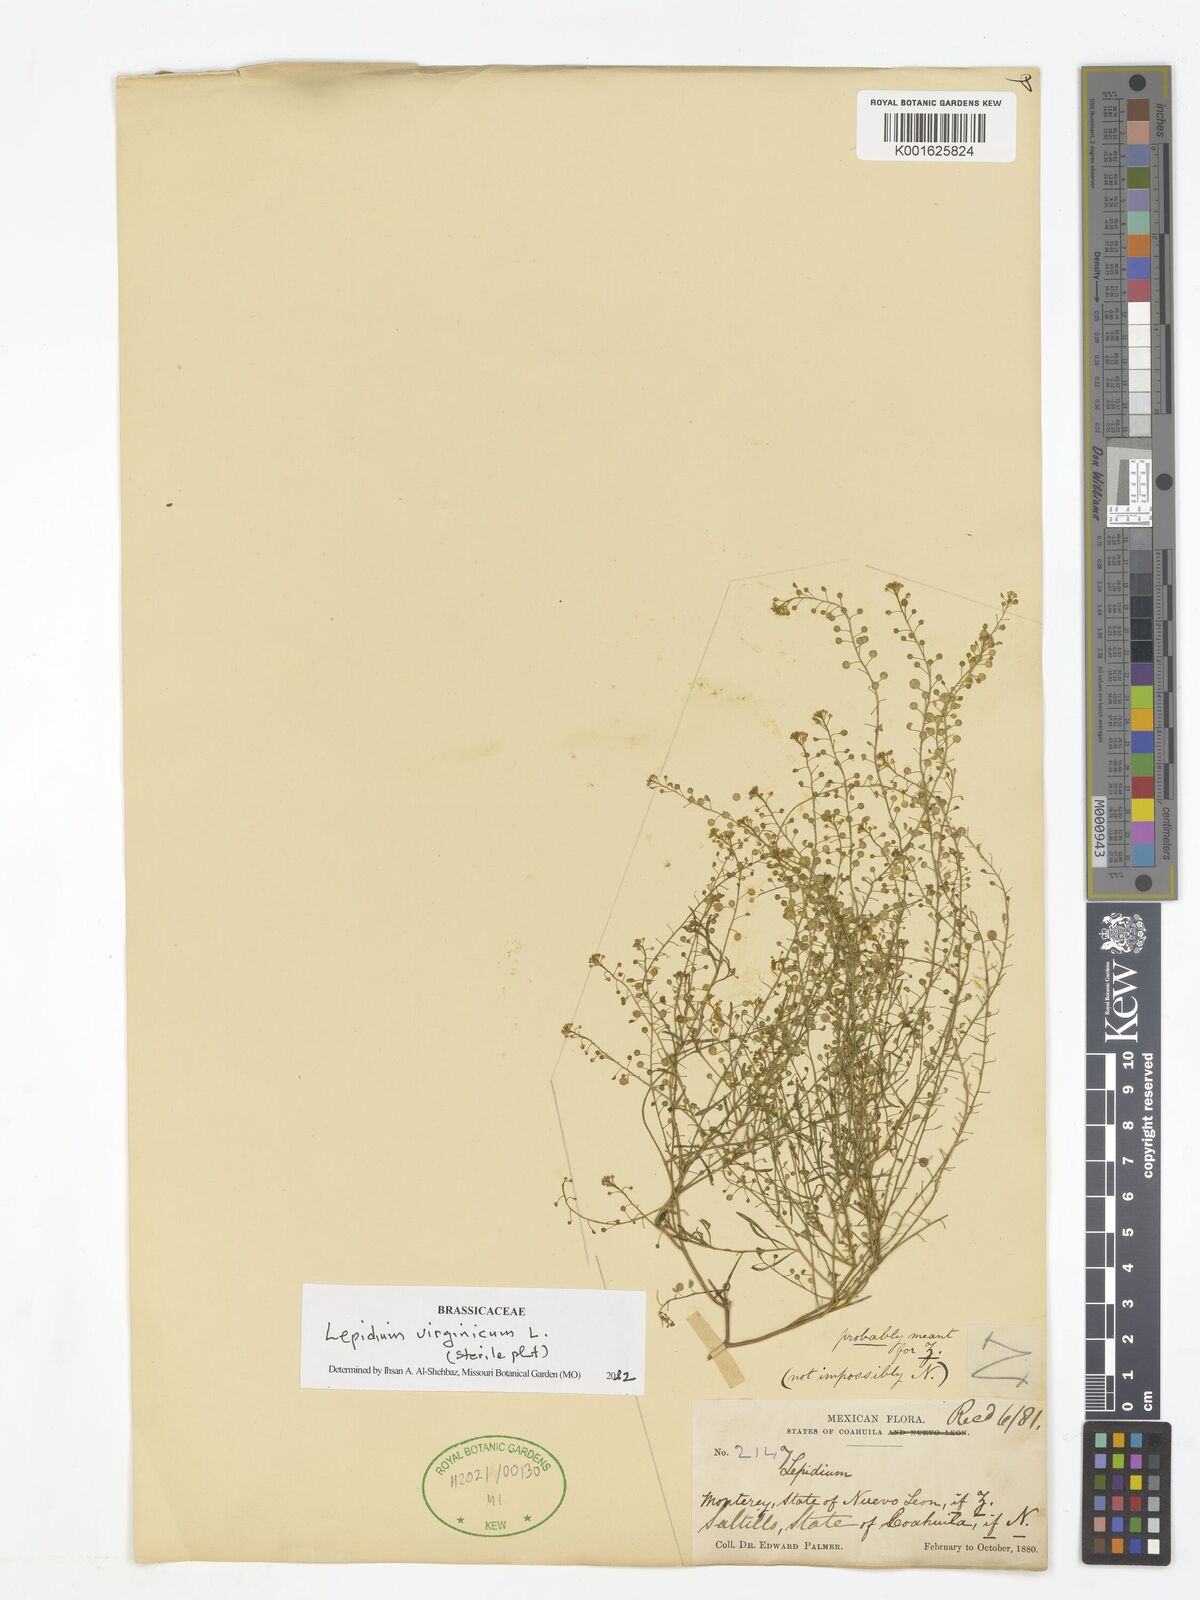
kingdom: Plantae
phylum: Tracheophyta
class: Magnoliopsida
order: Brassicales
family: Brassicaceae
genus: Lepidium
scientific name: Lepidium virginicum
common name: Least pepperwort
